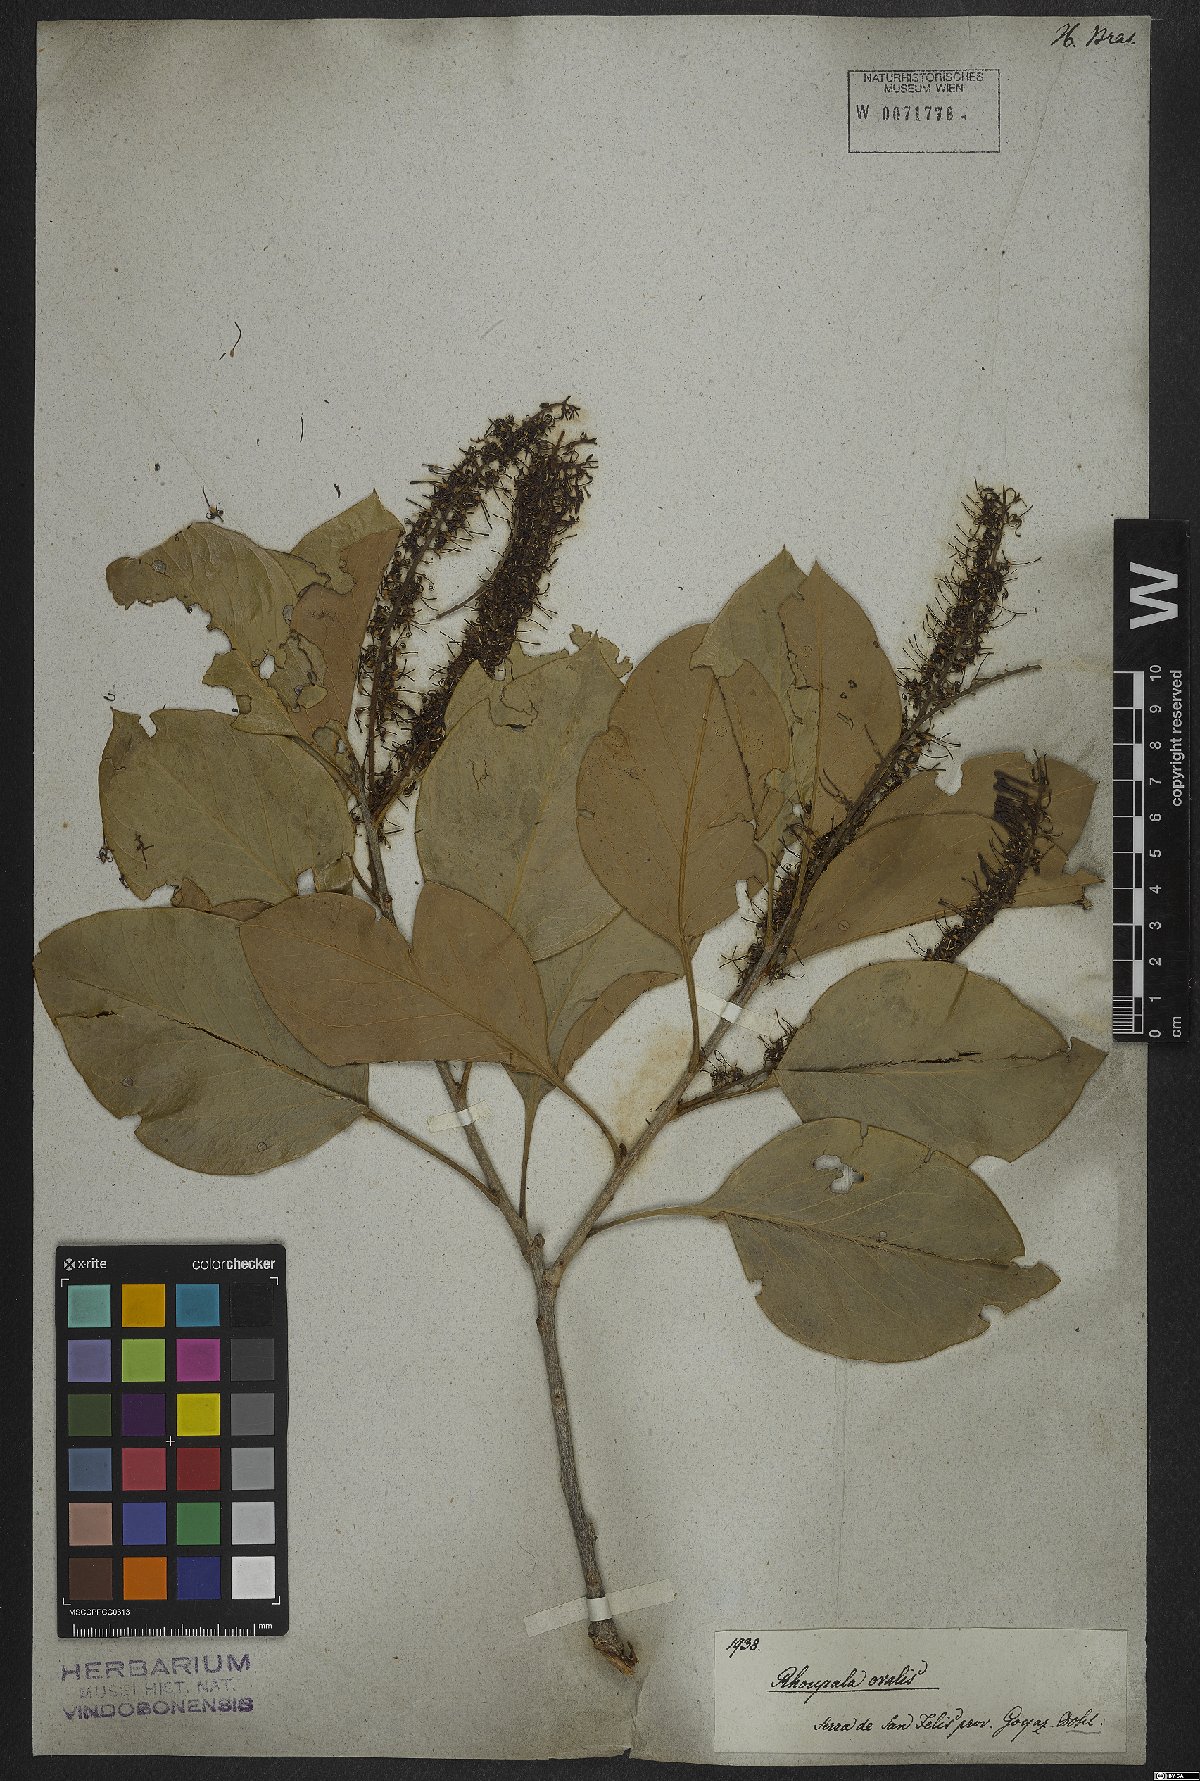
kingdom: Plantae
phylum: Tracheophyta
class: Magnoliopsida
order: Proteales
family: Proteaceae
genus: Roupala
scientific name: Roupala montana
